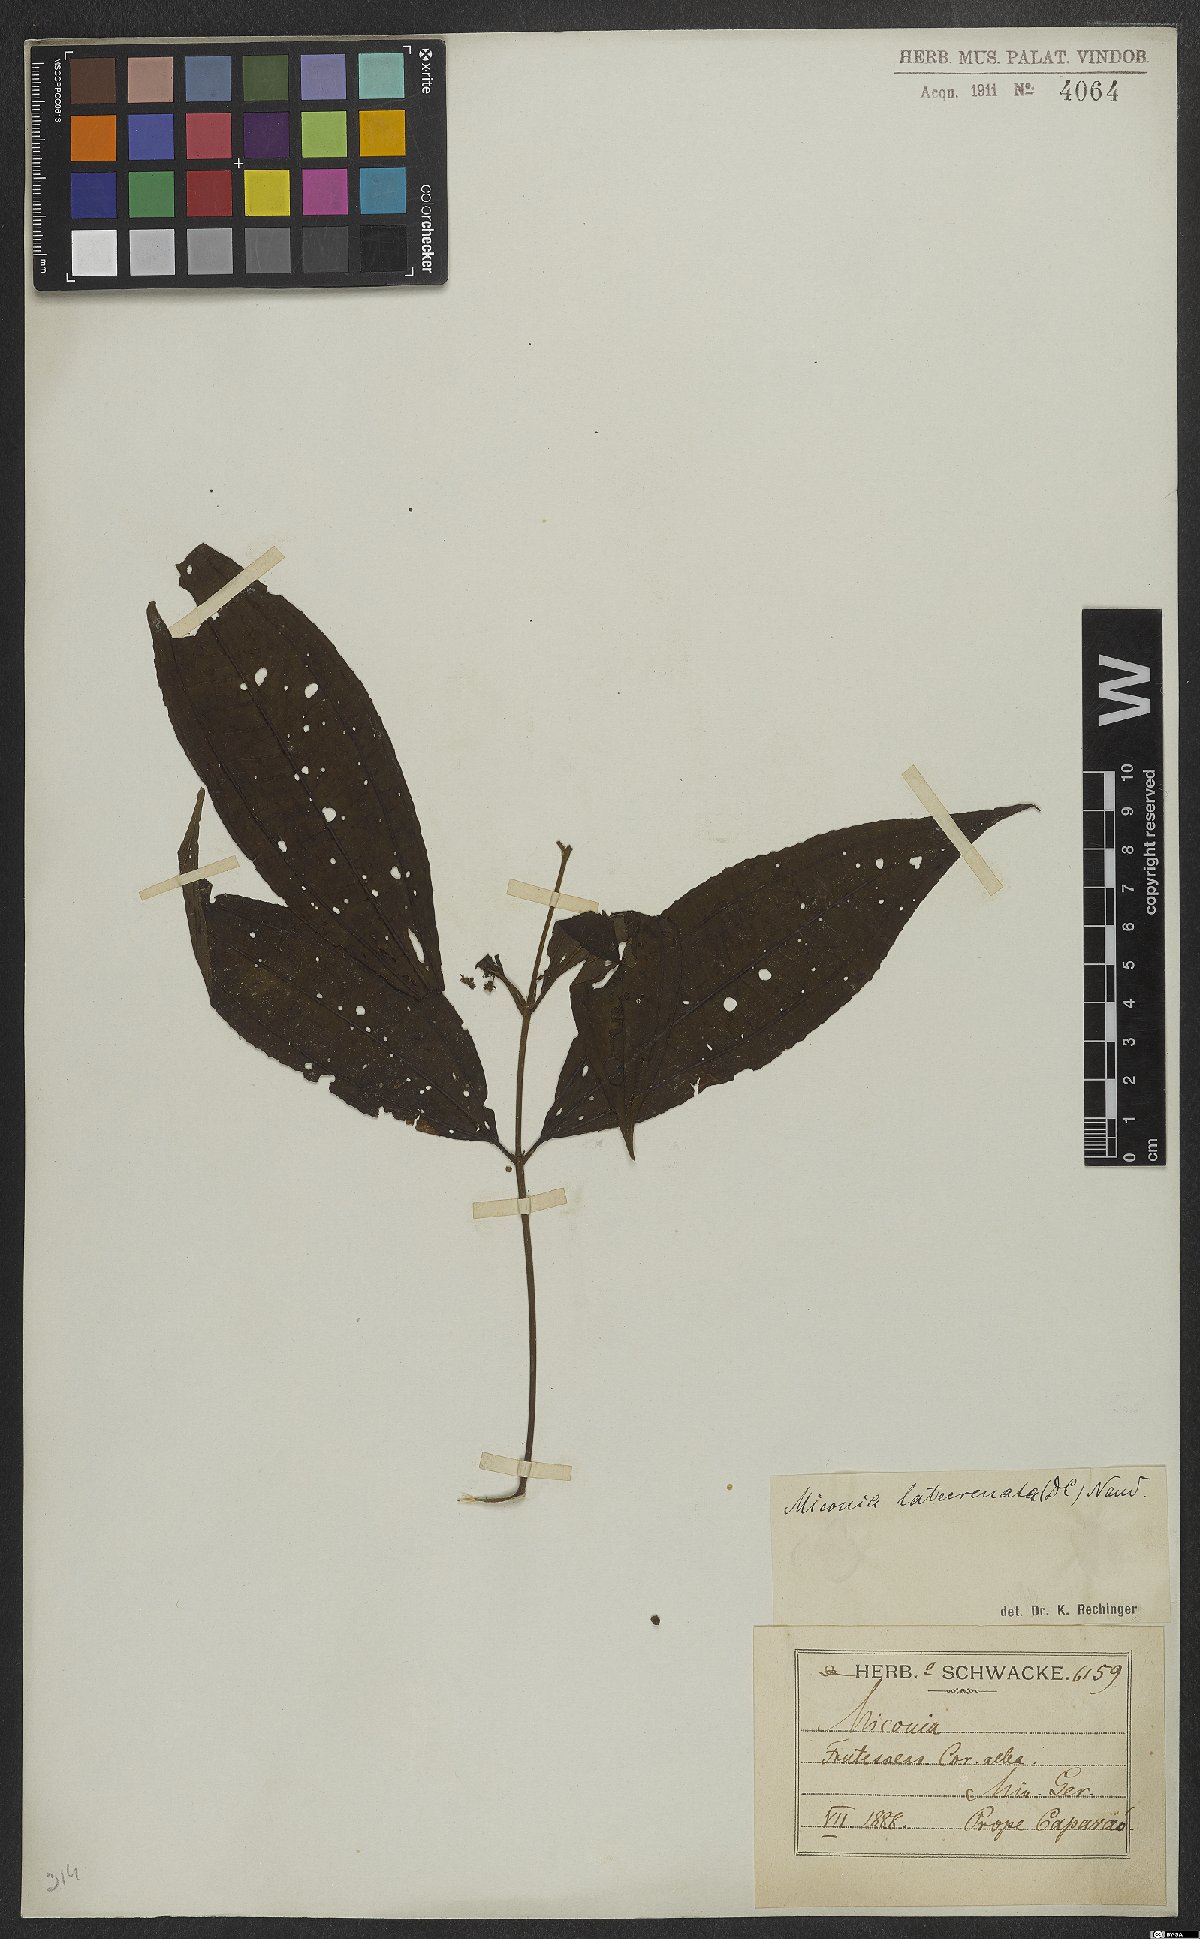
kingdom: Plantae
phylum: Tracheophyta
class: Magnoliopsida
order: Myrtales
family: Melastomataceae
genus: Miconia
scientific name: Miconia latecrenata
